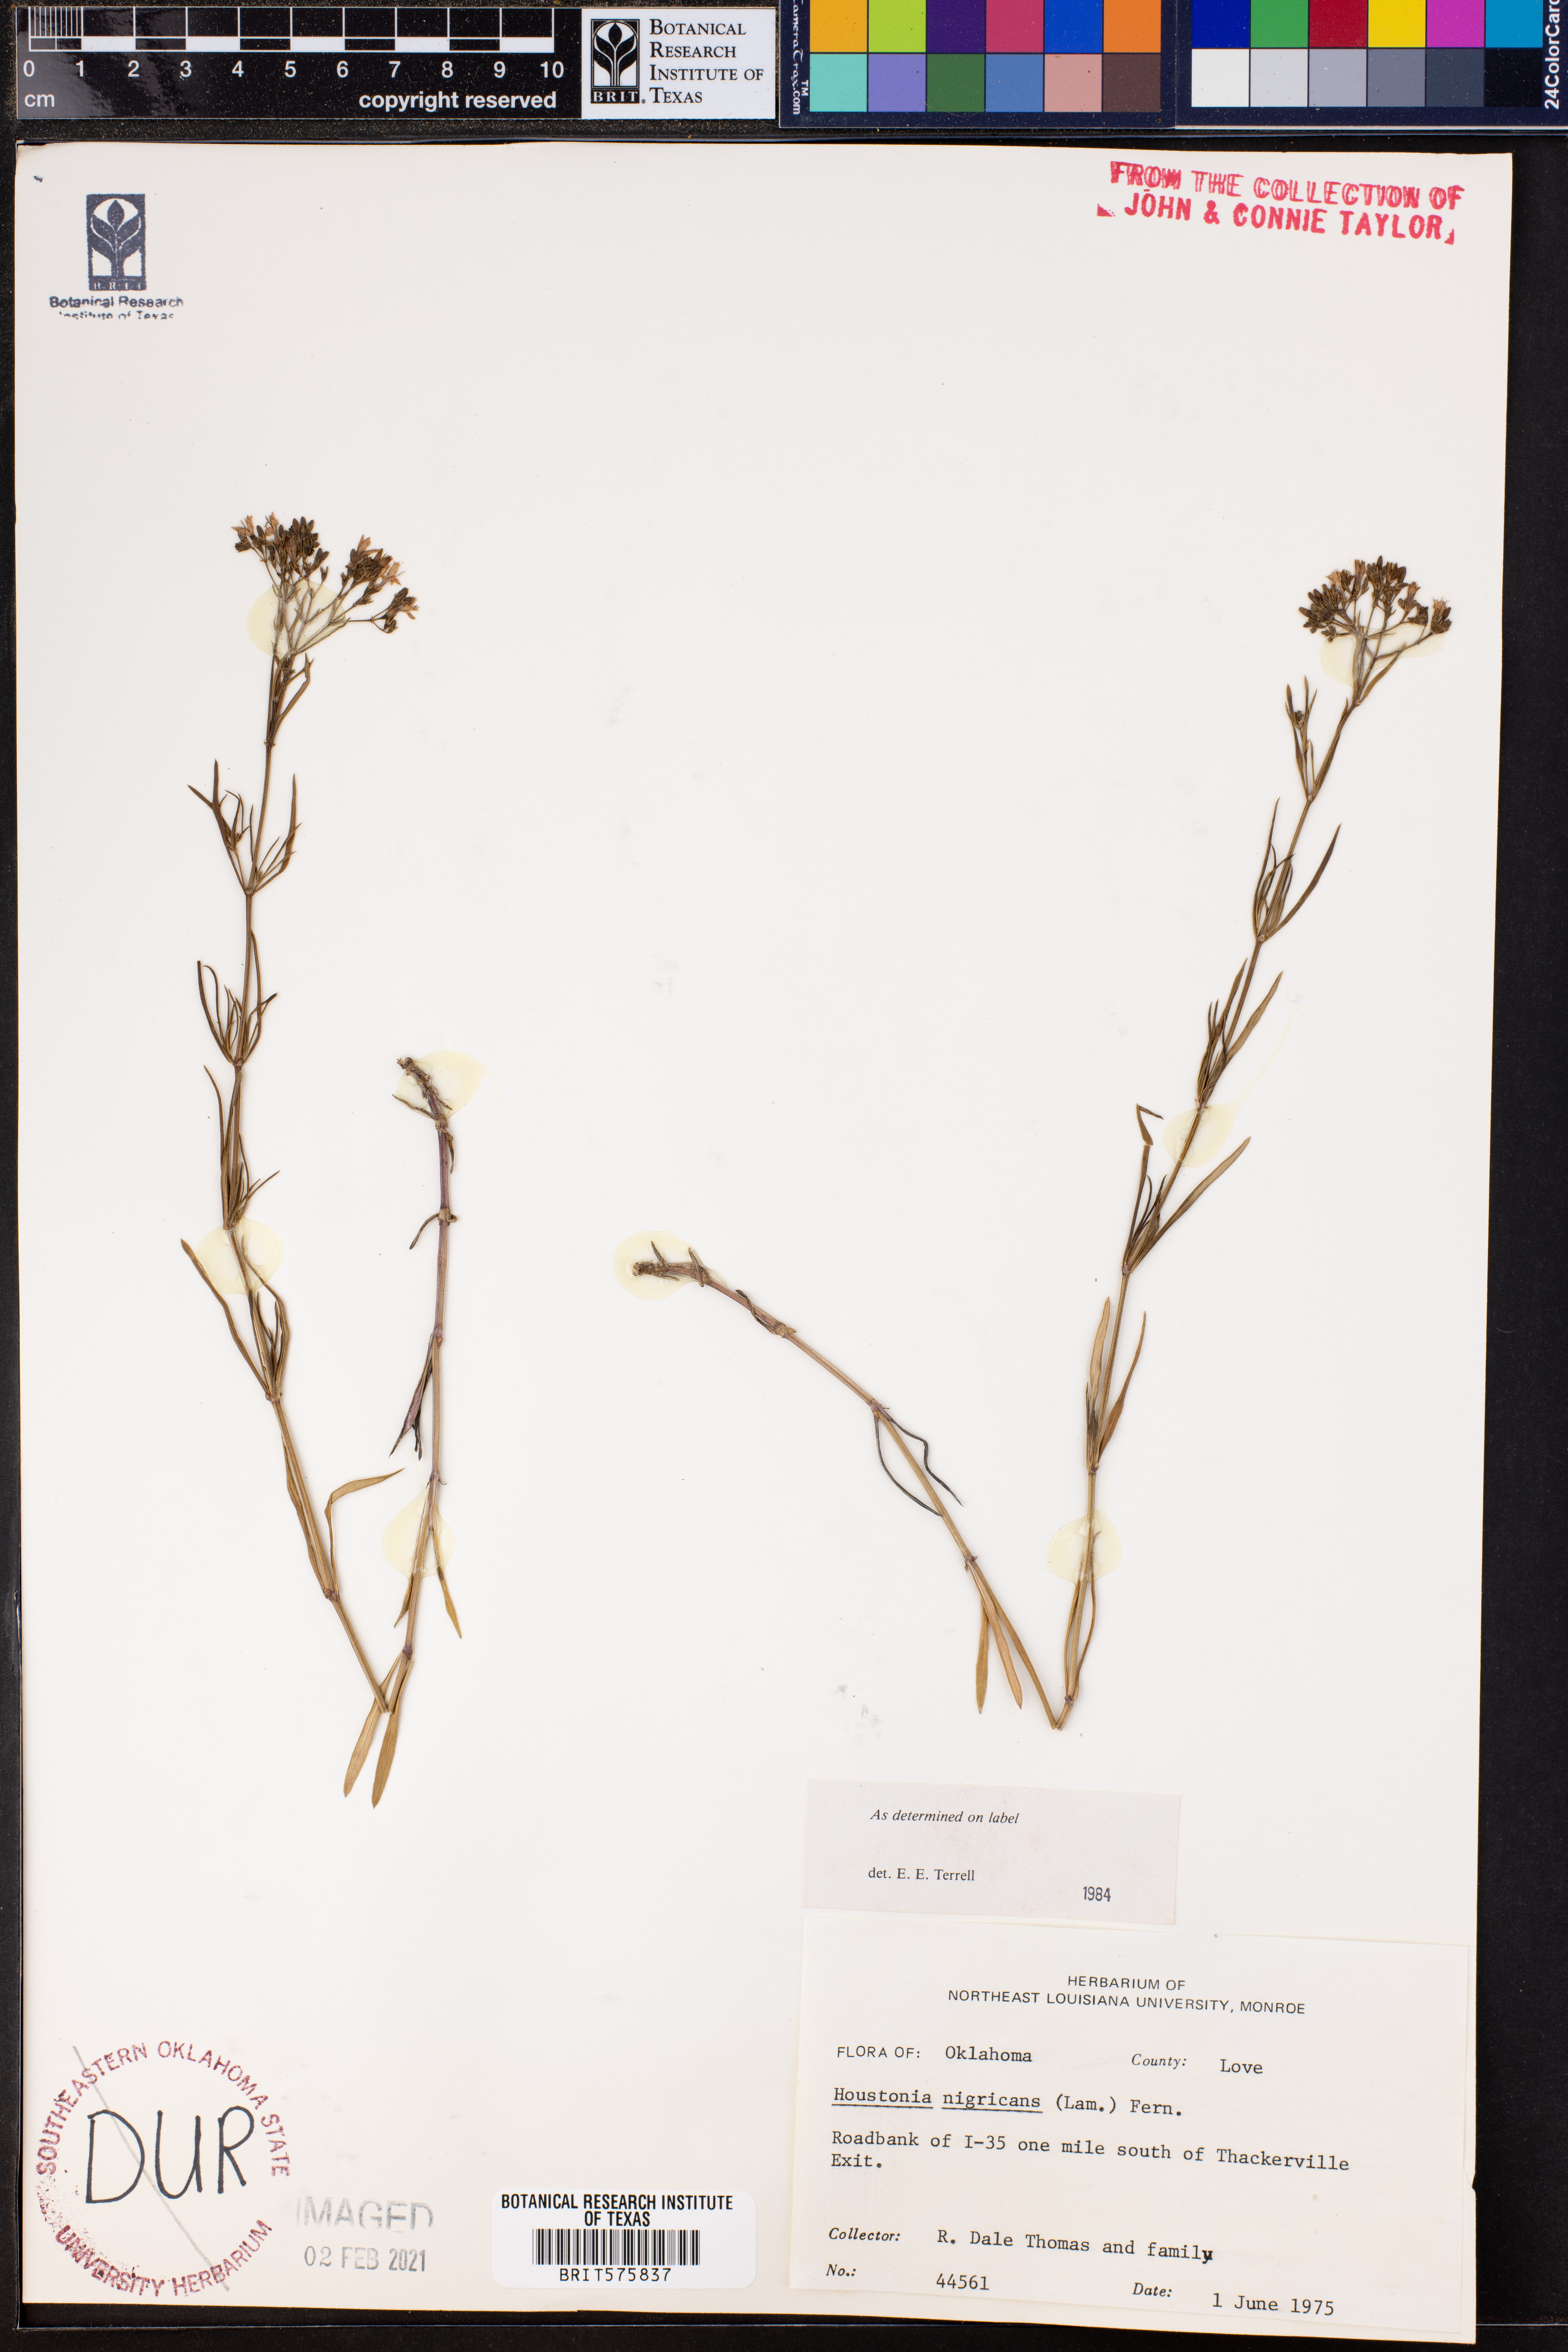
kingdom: Plantae
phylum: Tracheophyta
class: Magnoliopsida
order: Gentianales
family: Rubiaceae
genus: Stenaria
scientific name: Stenaria nigricans
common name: Diamondflowers
